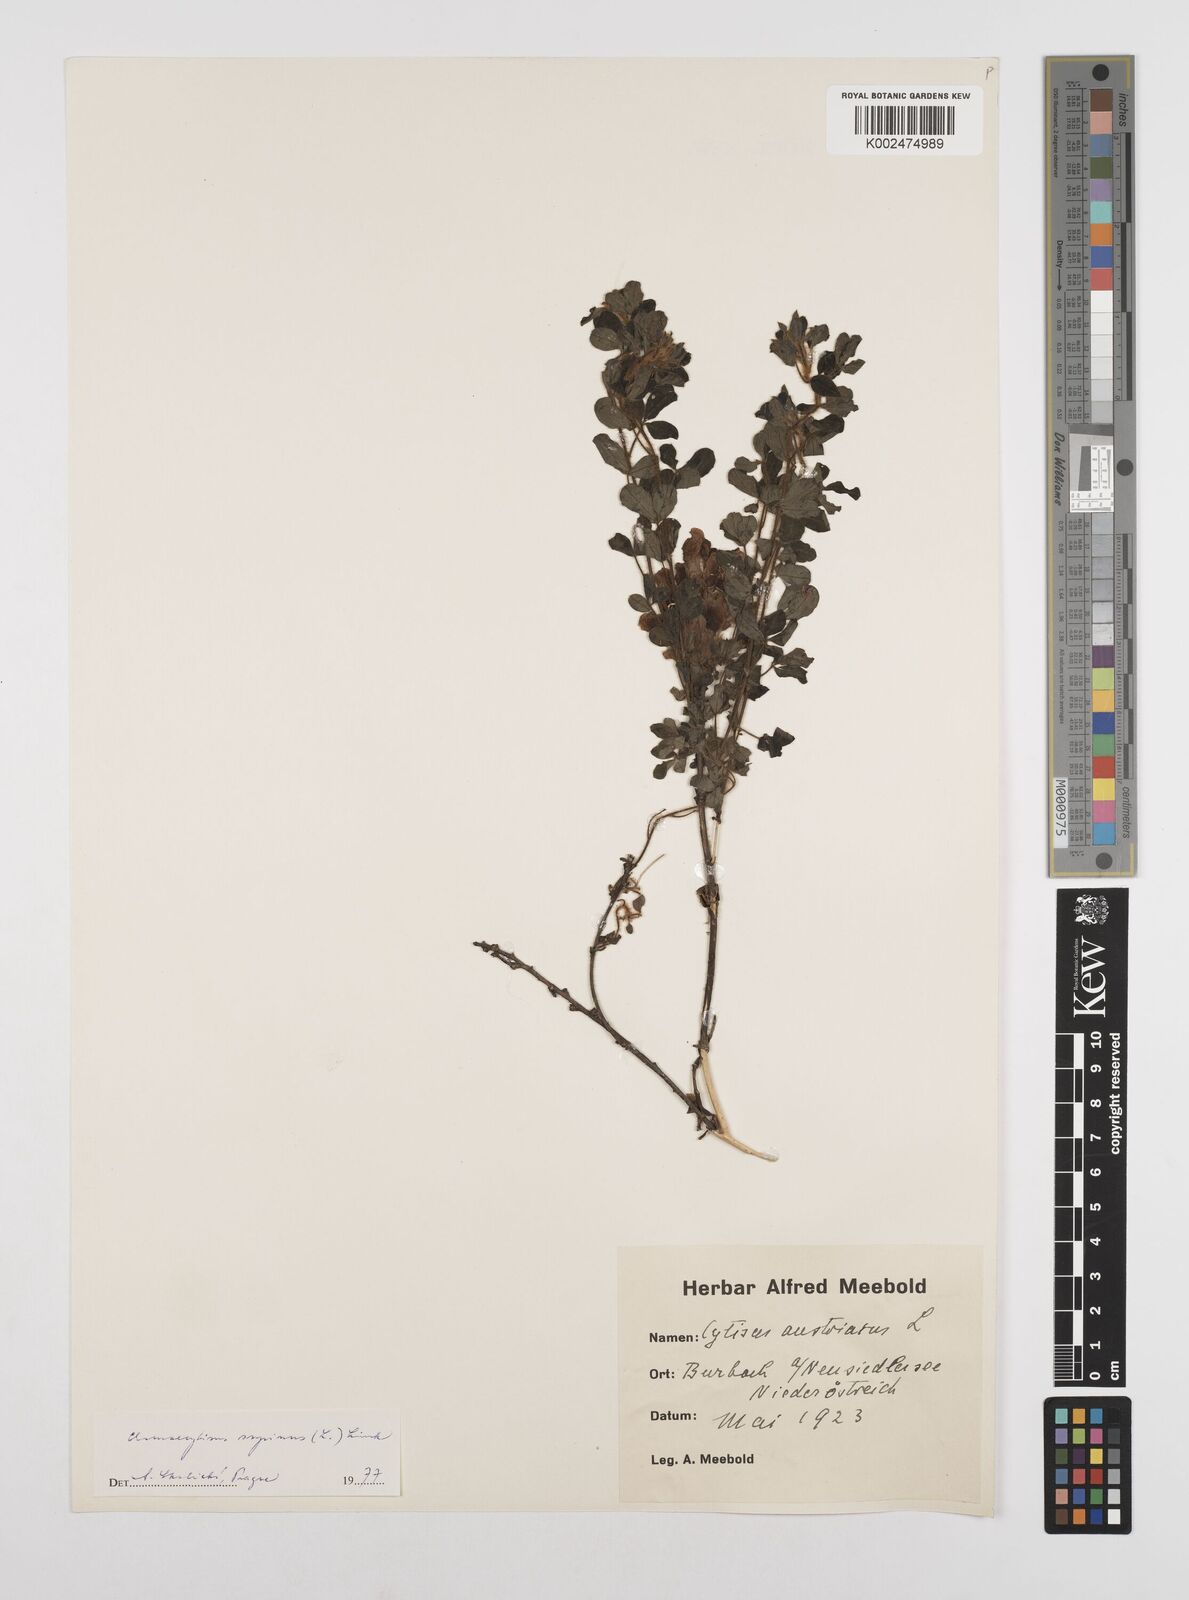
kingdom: Plantae
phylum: Tracheophyta
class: Magnoliopsida
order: Fabales
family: Fabaceae
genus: Chamaecytisus
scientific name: Chamaecytisus hirsutus
